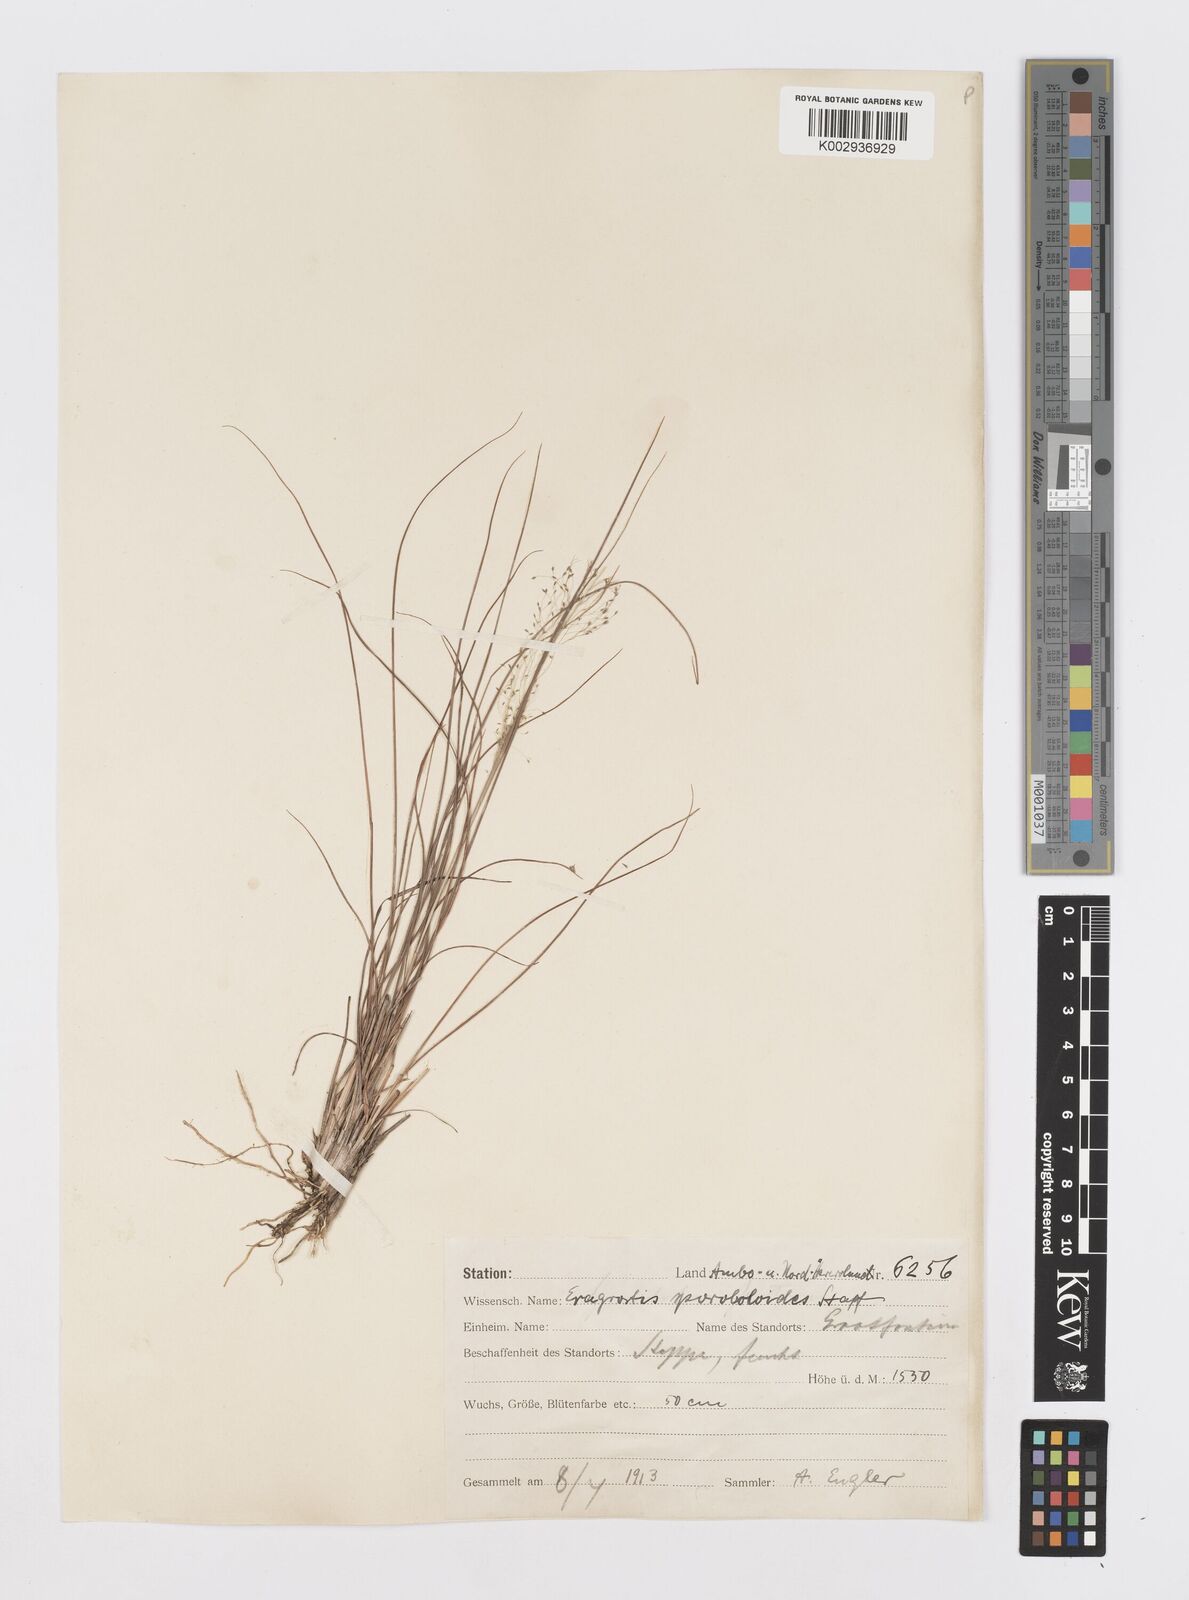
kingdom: Plantae
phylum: Tracheophyta
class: Liliopsida
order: Poales
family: Poaceae
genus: Sporobolus
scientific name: Sporobolus subtilis
